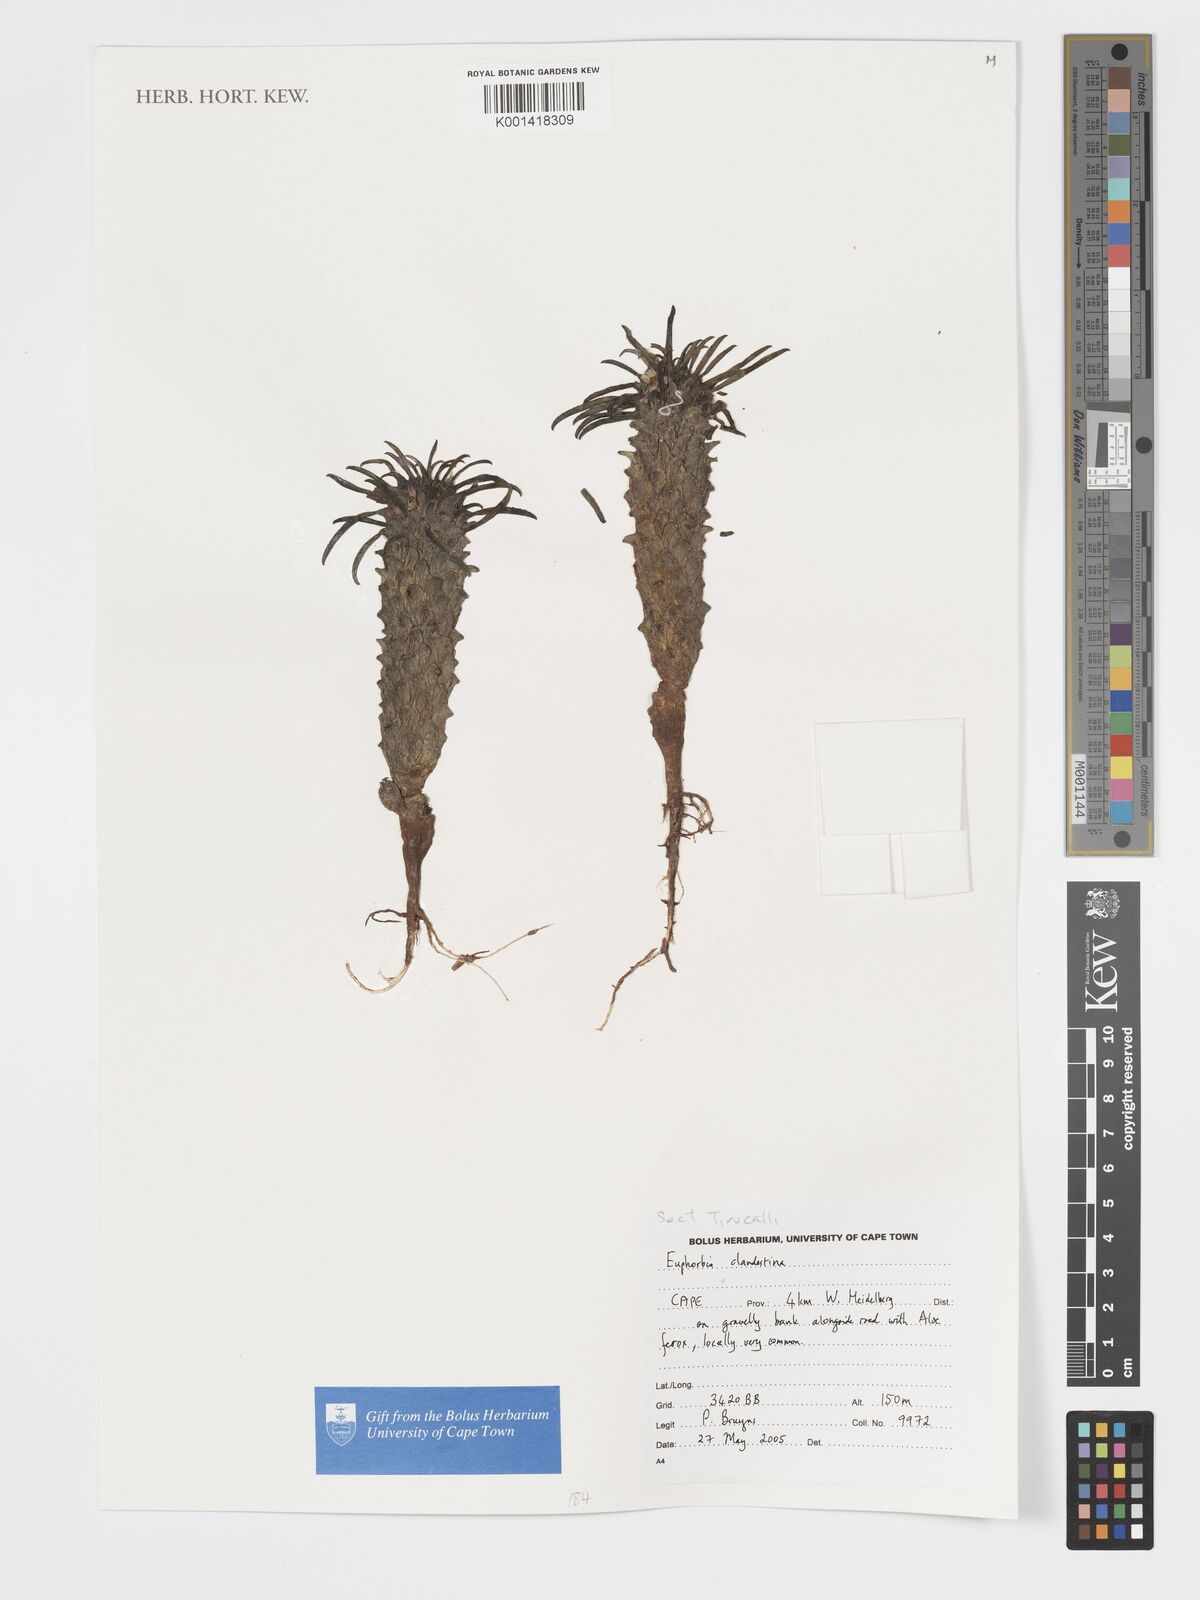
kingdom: Plantae
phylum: Tracheophyta
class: Magnoliopsida
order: Malpighiales
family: Euphorbiaceae
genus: Euphorbia
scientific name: Euphorbia
